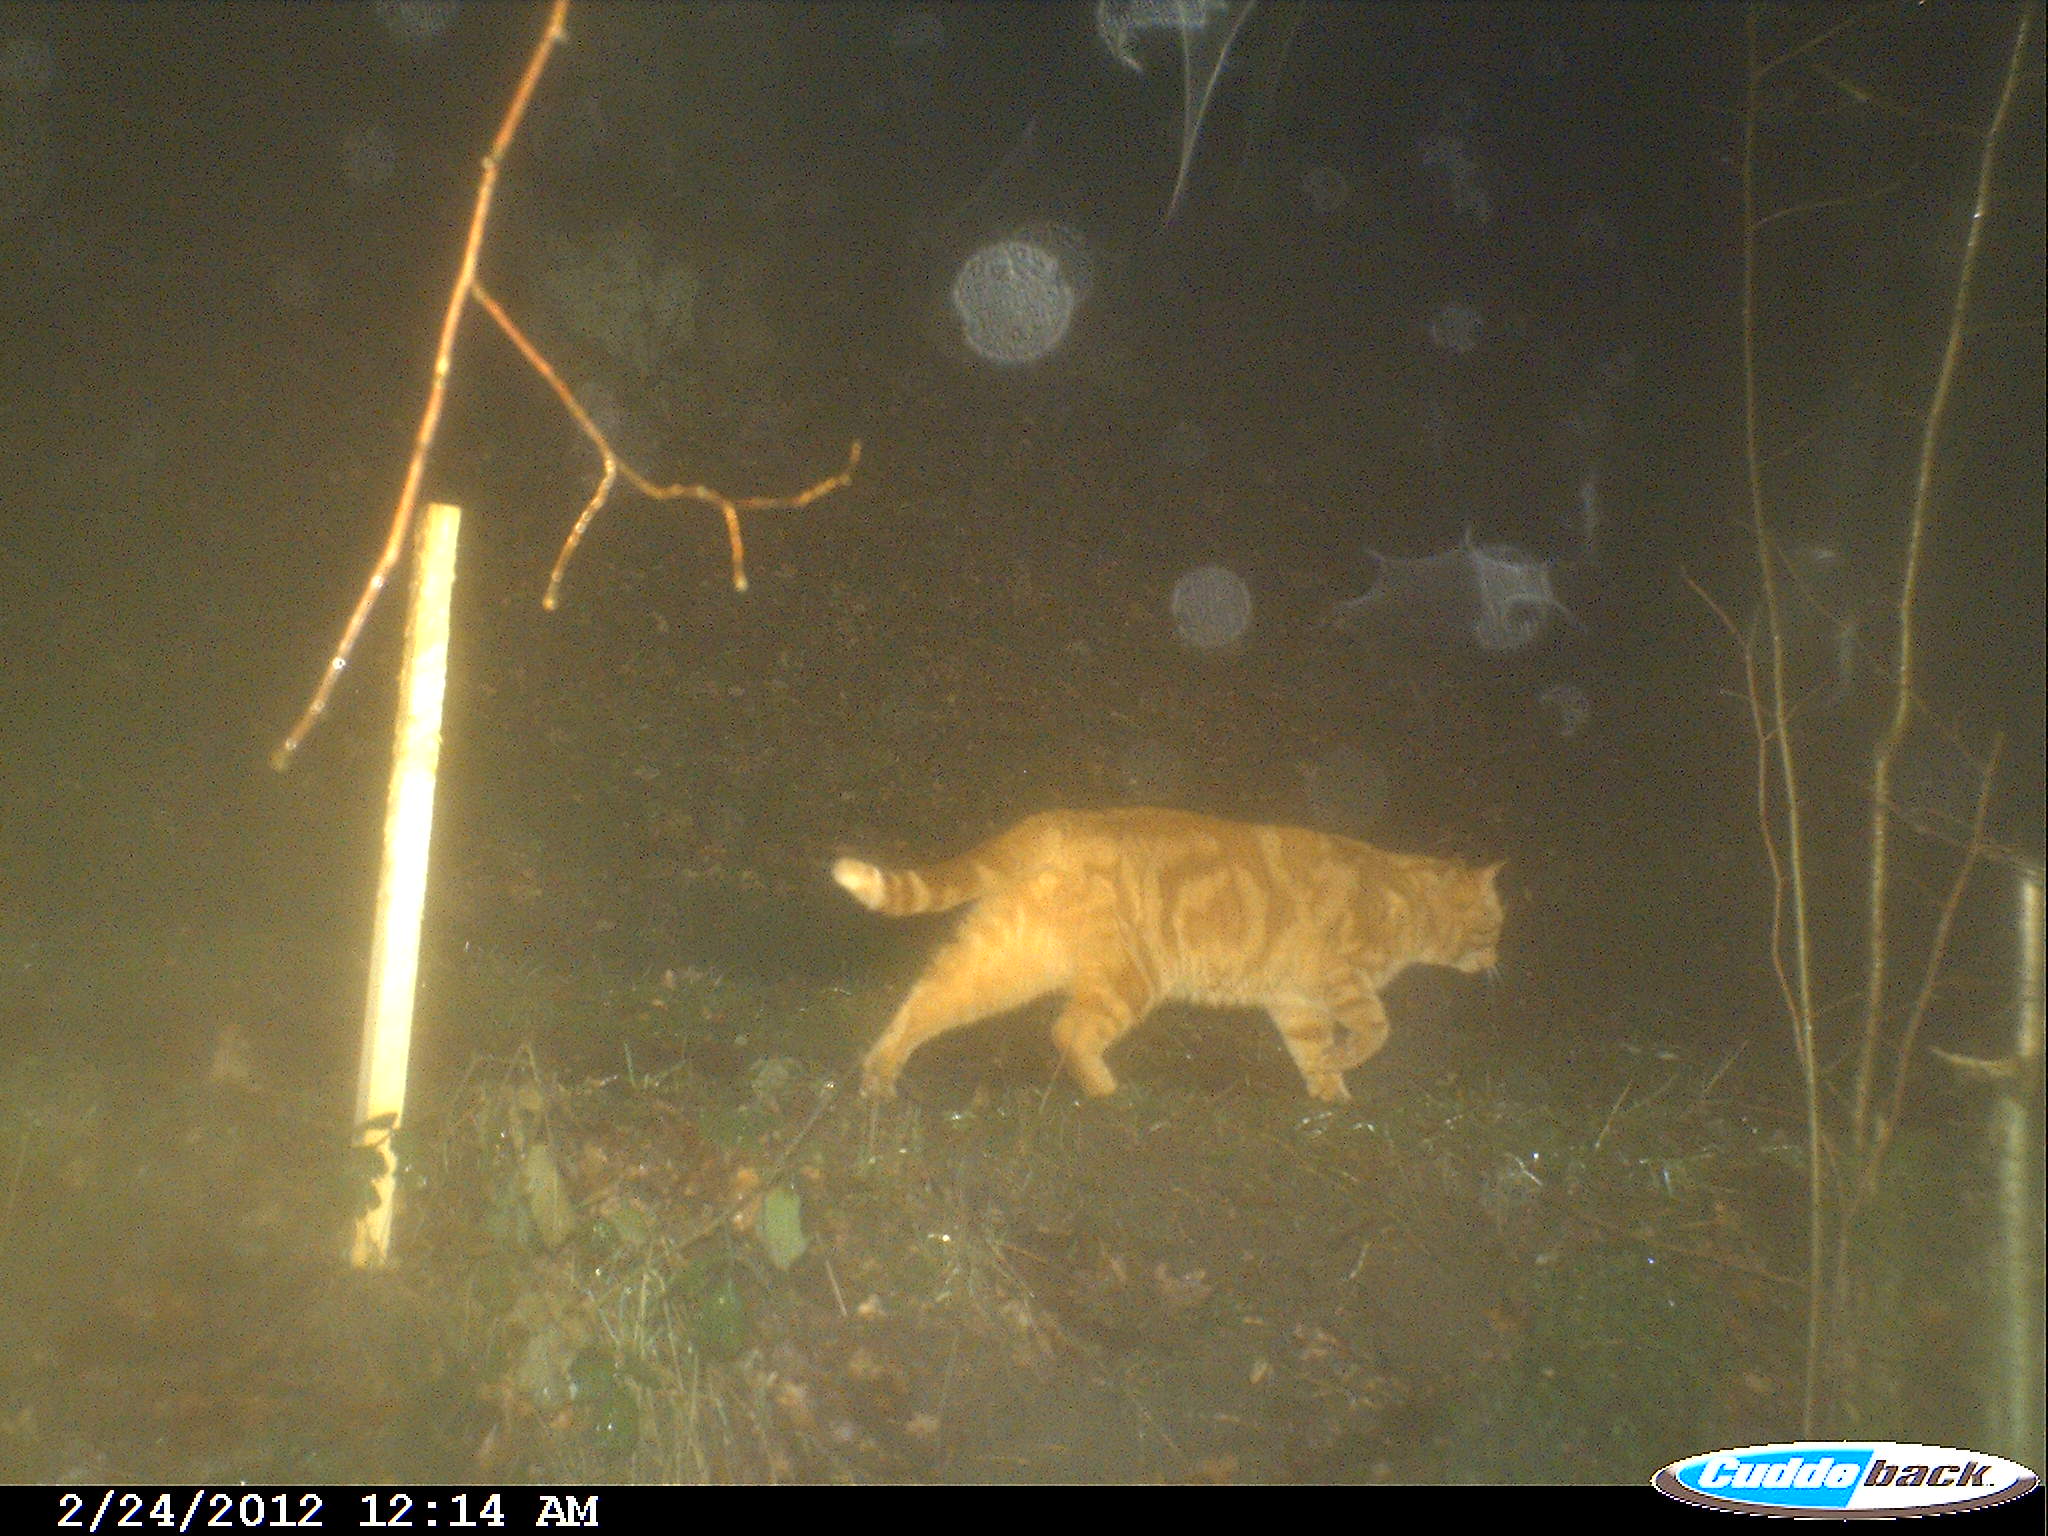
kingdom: Animalia
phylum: Chordata
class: Mammalia
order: Carnivora
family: Felidae
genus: Felis
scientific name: Felis catus
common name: Domestic cat
